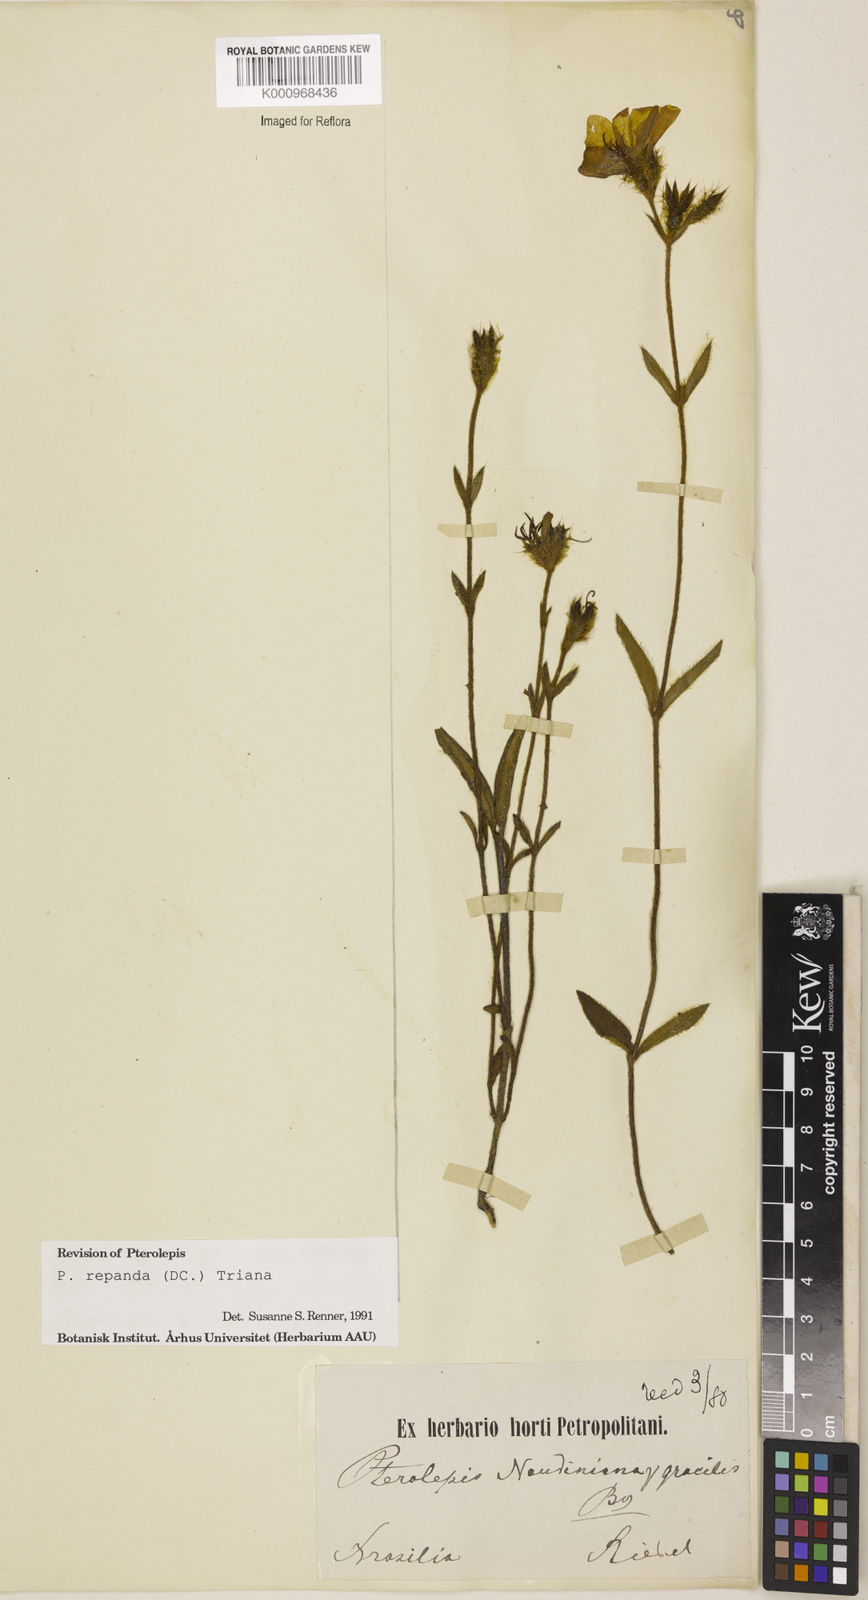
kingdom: Plantae
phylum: Tracheophyta
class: Magnoliopsida
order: Myrtales
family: Melastomataceae
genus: Pterolepis
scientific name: Pterolepis repanda
